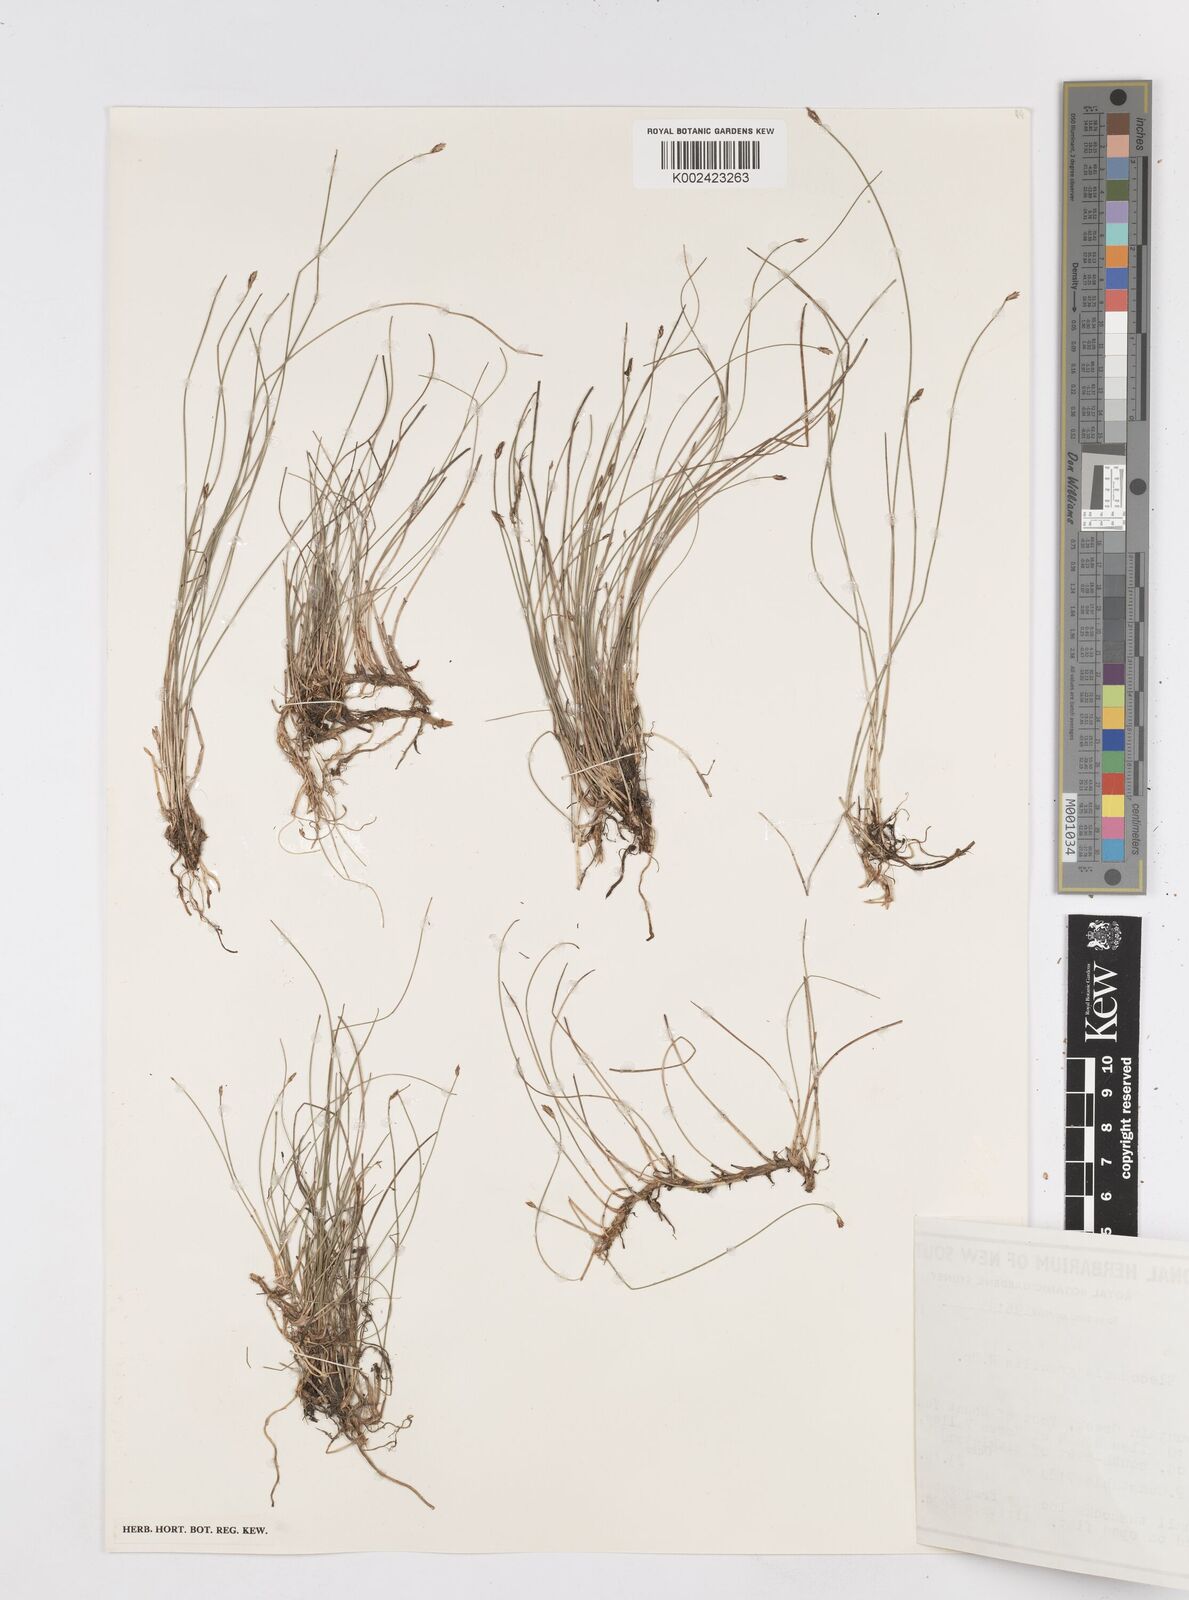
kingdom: Plantae
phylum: Tracheophyta
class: Liliopsida
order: Poales
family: Cyperaceae
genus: Eleocharis
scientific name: Eleocharis multicaulis
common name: Many-stalked spike-rush
